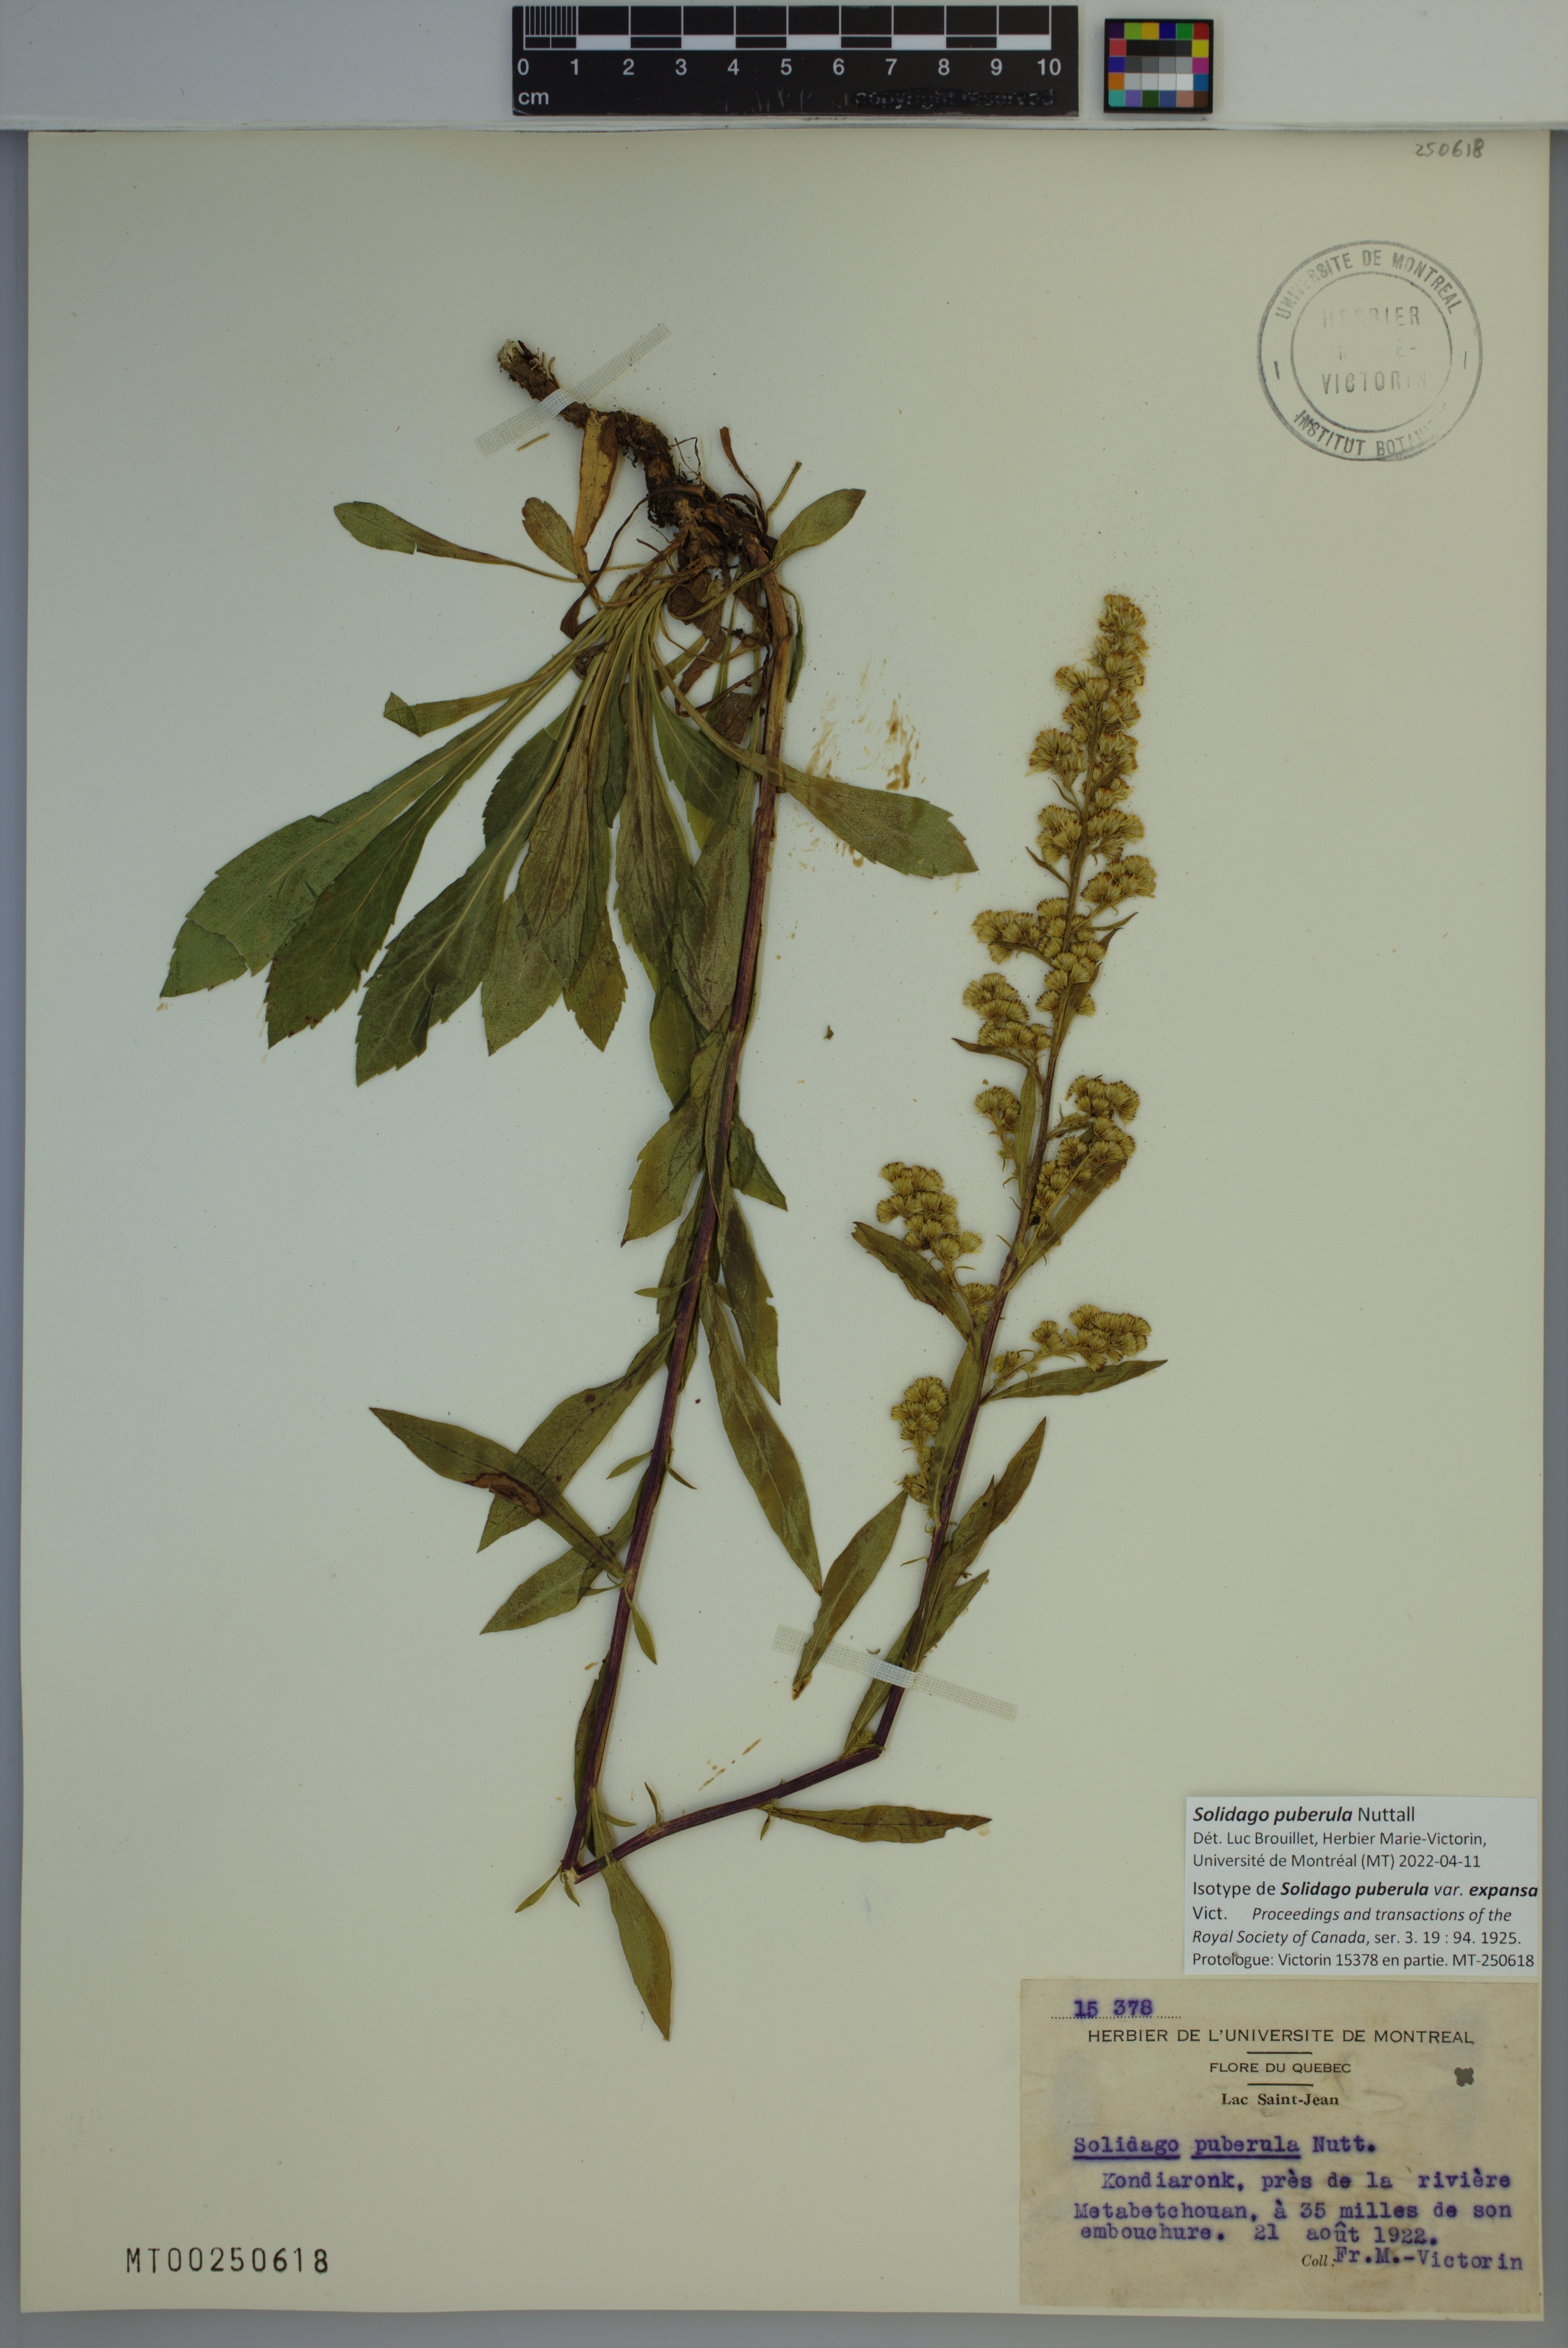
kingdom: Plantae
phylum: Tracheophyta
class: Magnoliopsida
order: Asterales
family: Asteraceae
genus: Solidago
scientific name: Solidago puberula
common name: Downy goldenrod
